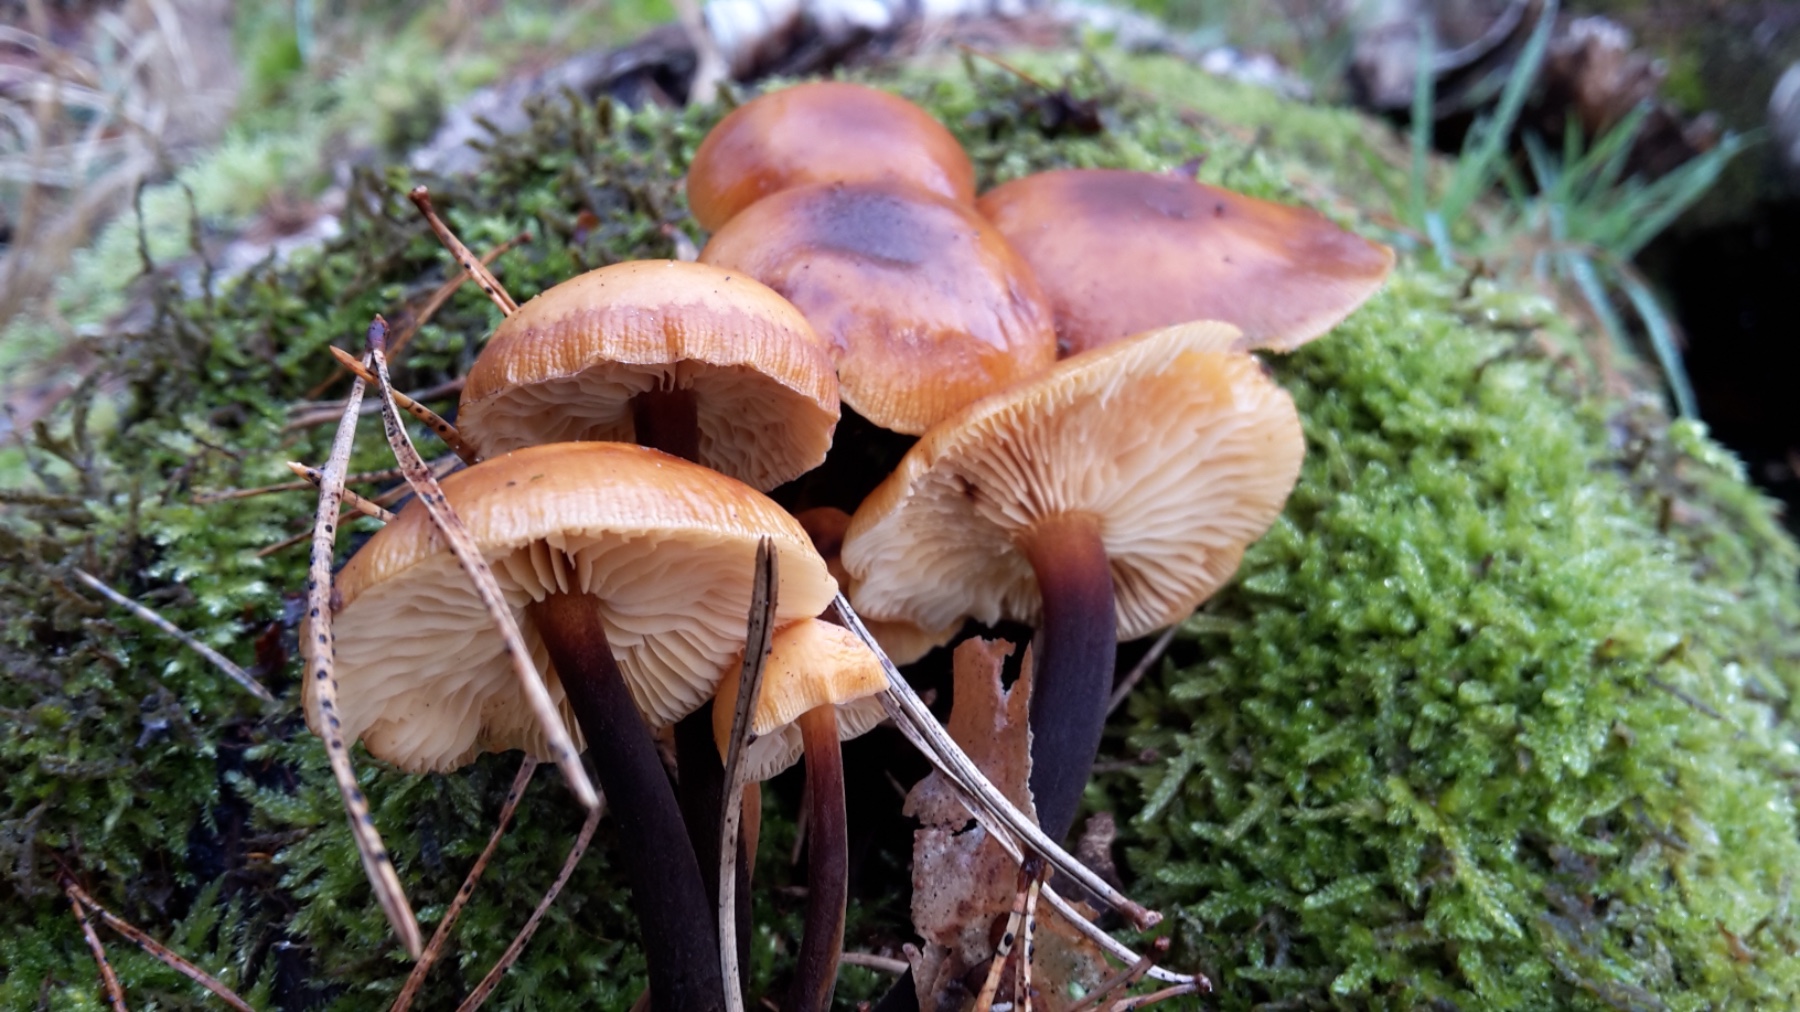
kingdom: Fungi
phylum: Basidiomycota
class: Agaricomycetes
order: Agaricales
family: Physalacriaceae
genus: Flammulina
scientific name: Flammulina velutipes
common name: gul fløjlsfod
